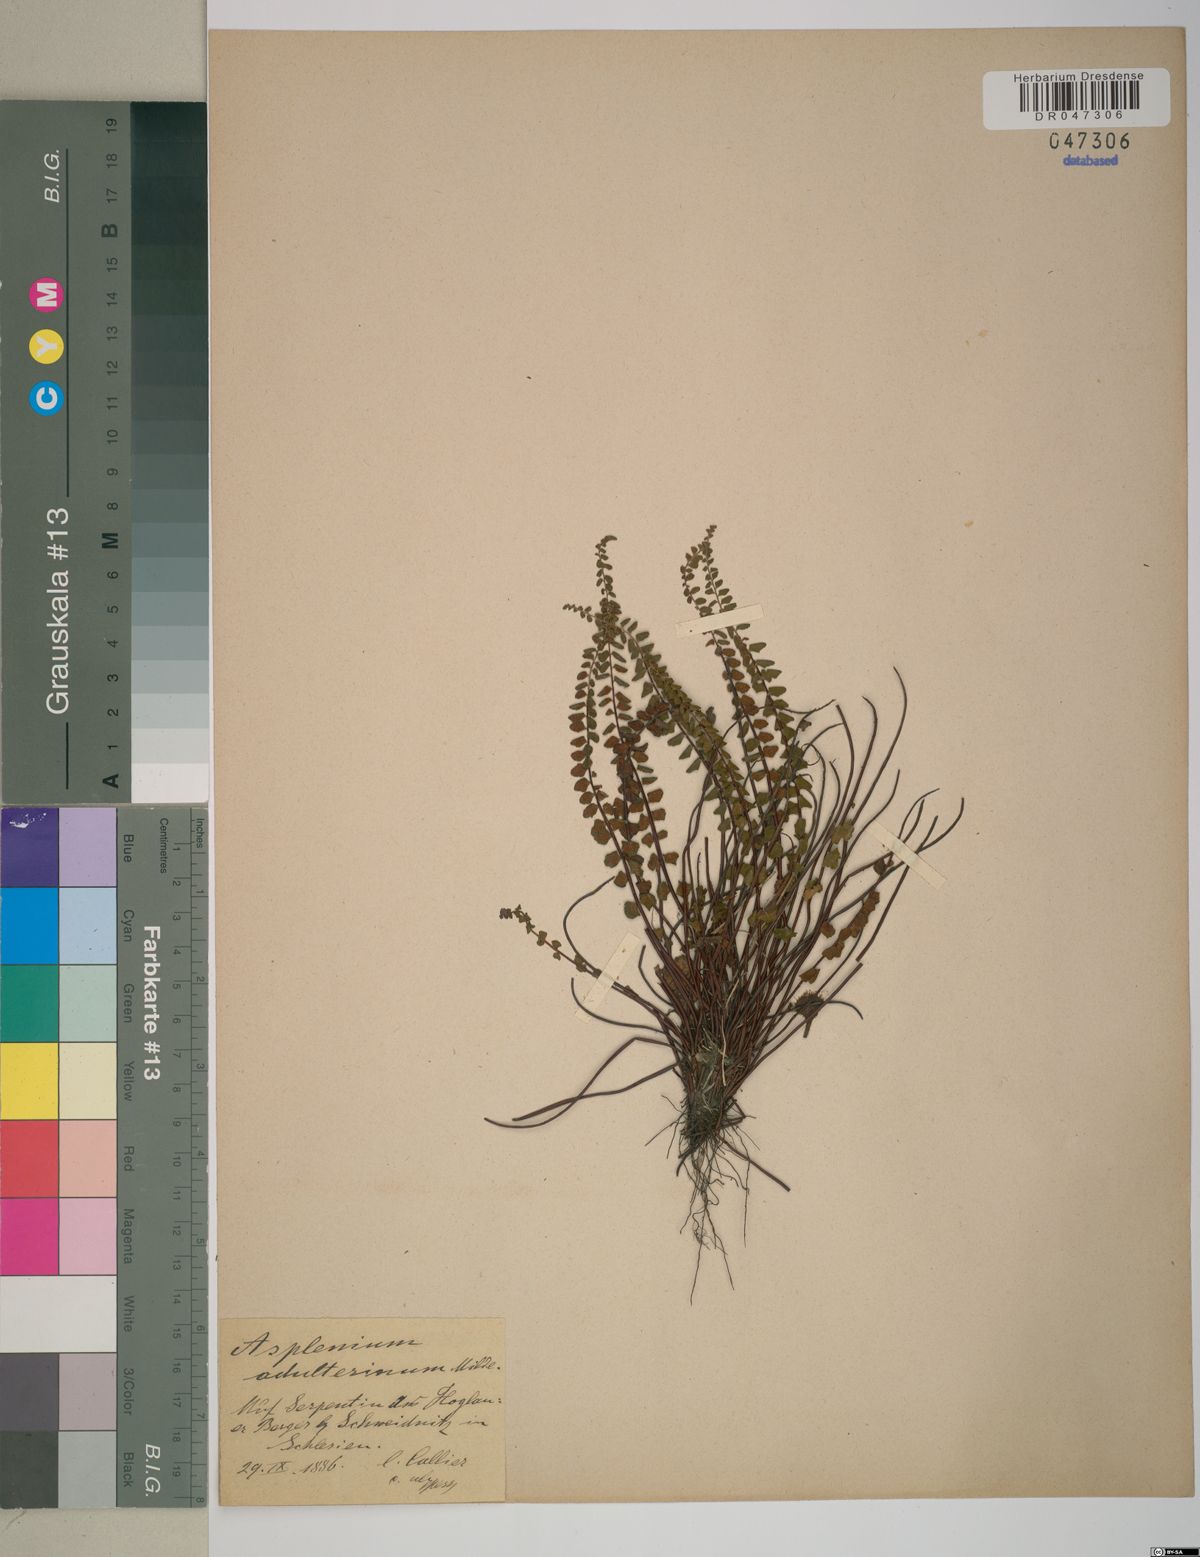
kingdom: Plantae
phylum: Tracheophyta
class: Polypodiopsida
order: Polypodiales
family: Aspleniaceae
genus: Asplenium
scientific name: Asplenium adulterinum
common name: Adulterated spleenwort
